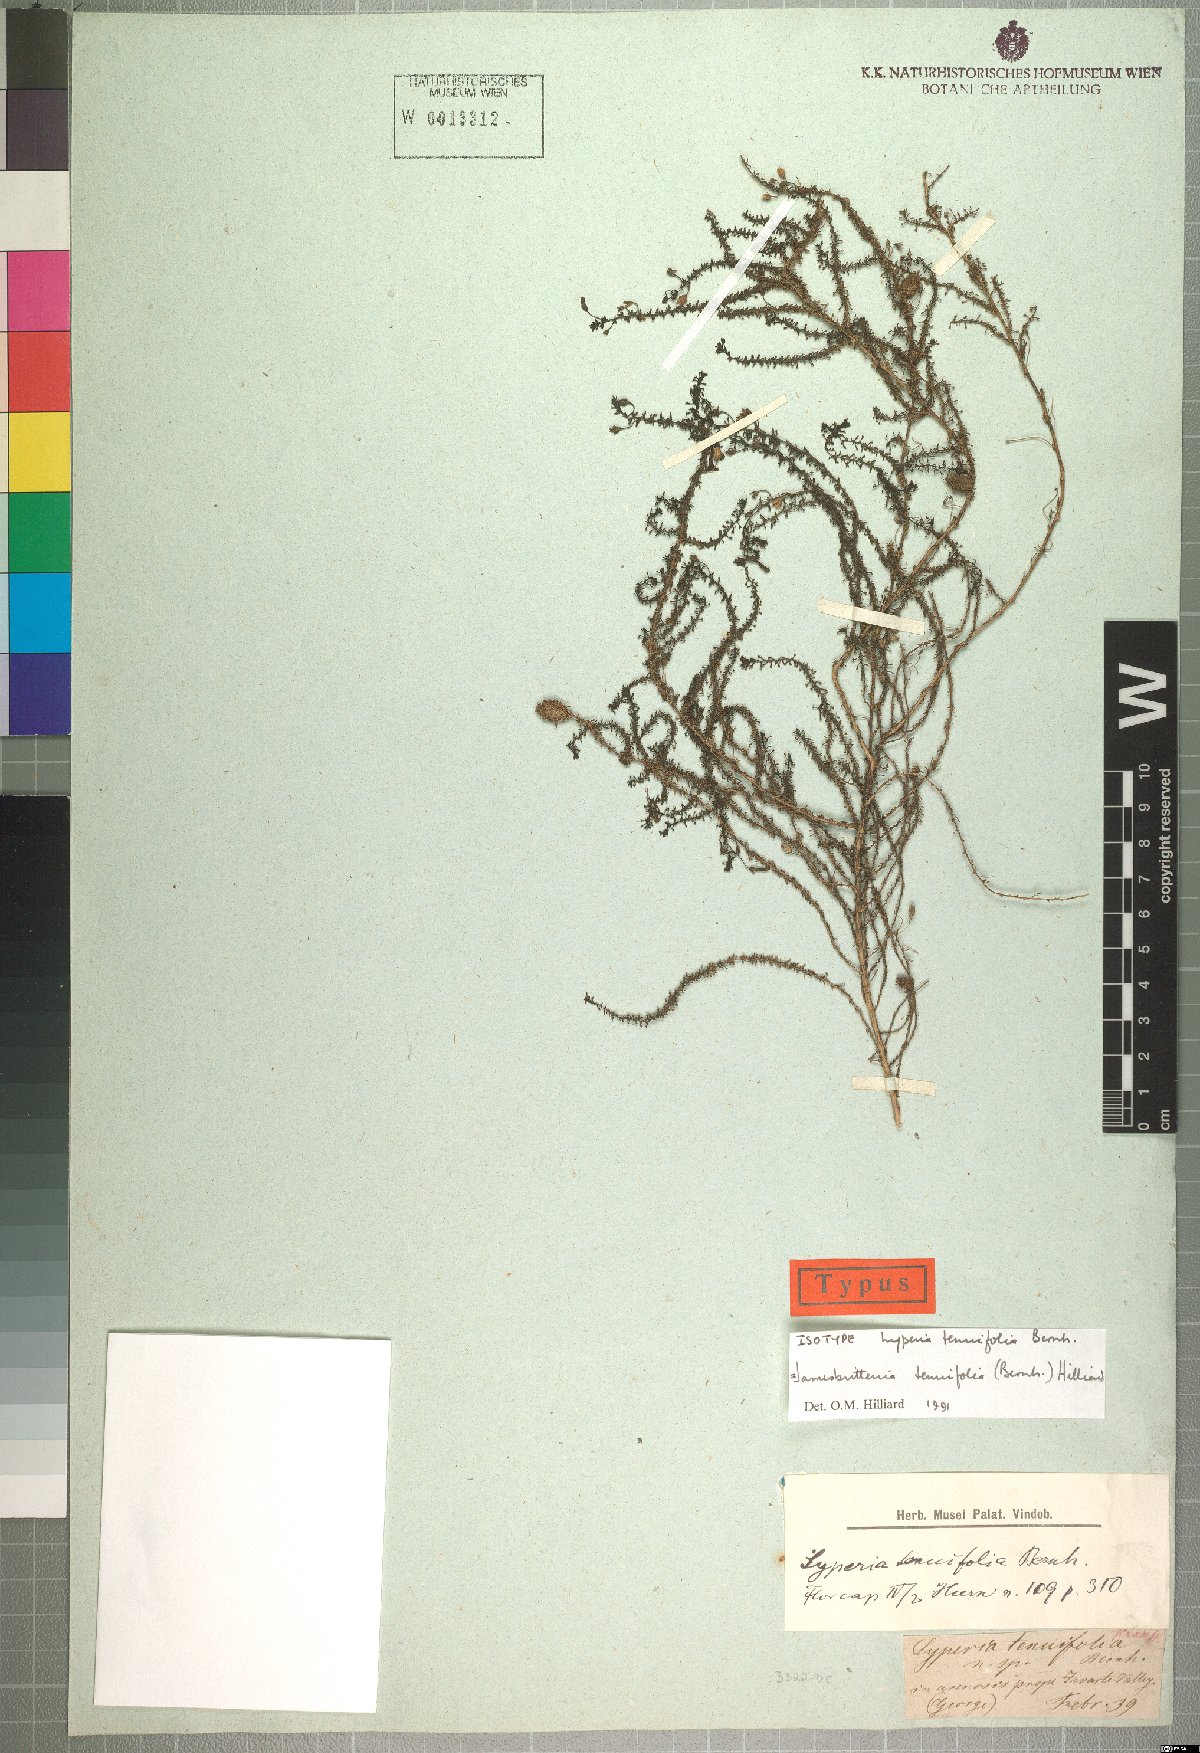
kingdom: Plantae
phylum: Tracheophyta
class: Magnoliopsida
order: Lamiales
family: Scrophulariaceae
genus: Jamesbrittenia
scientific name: Jamesbrittenia tenuifolia
